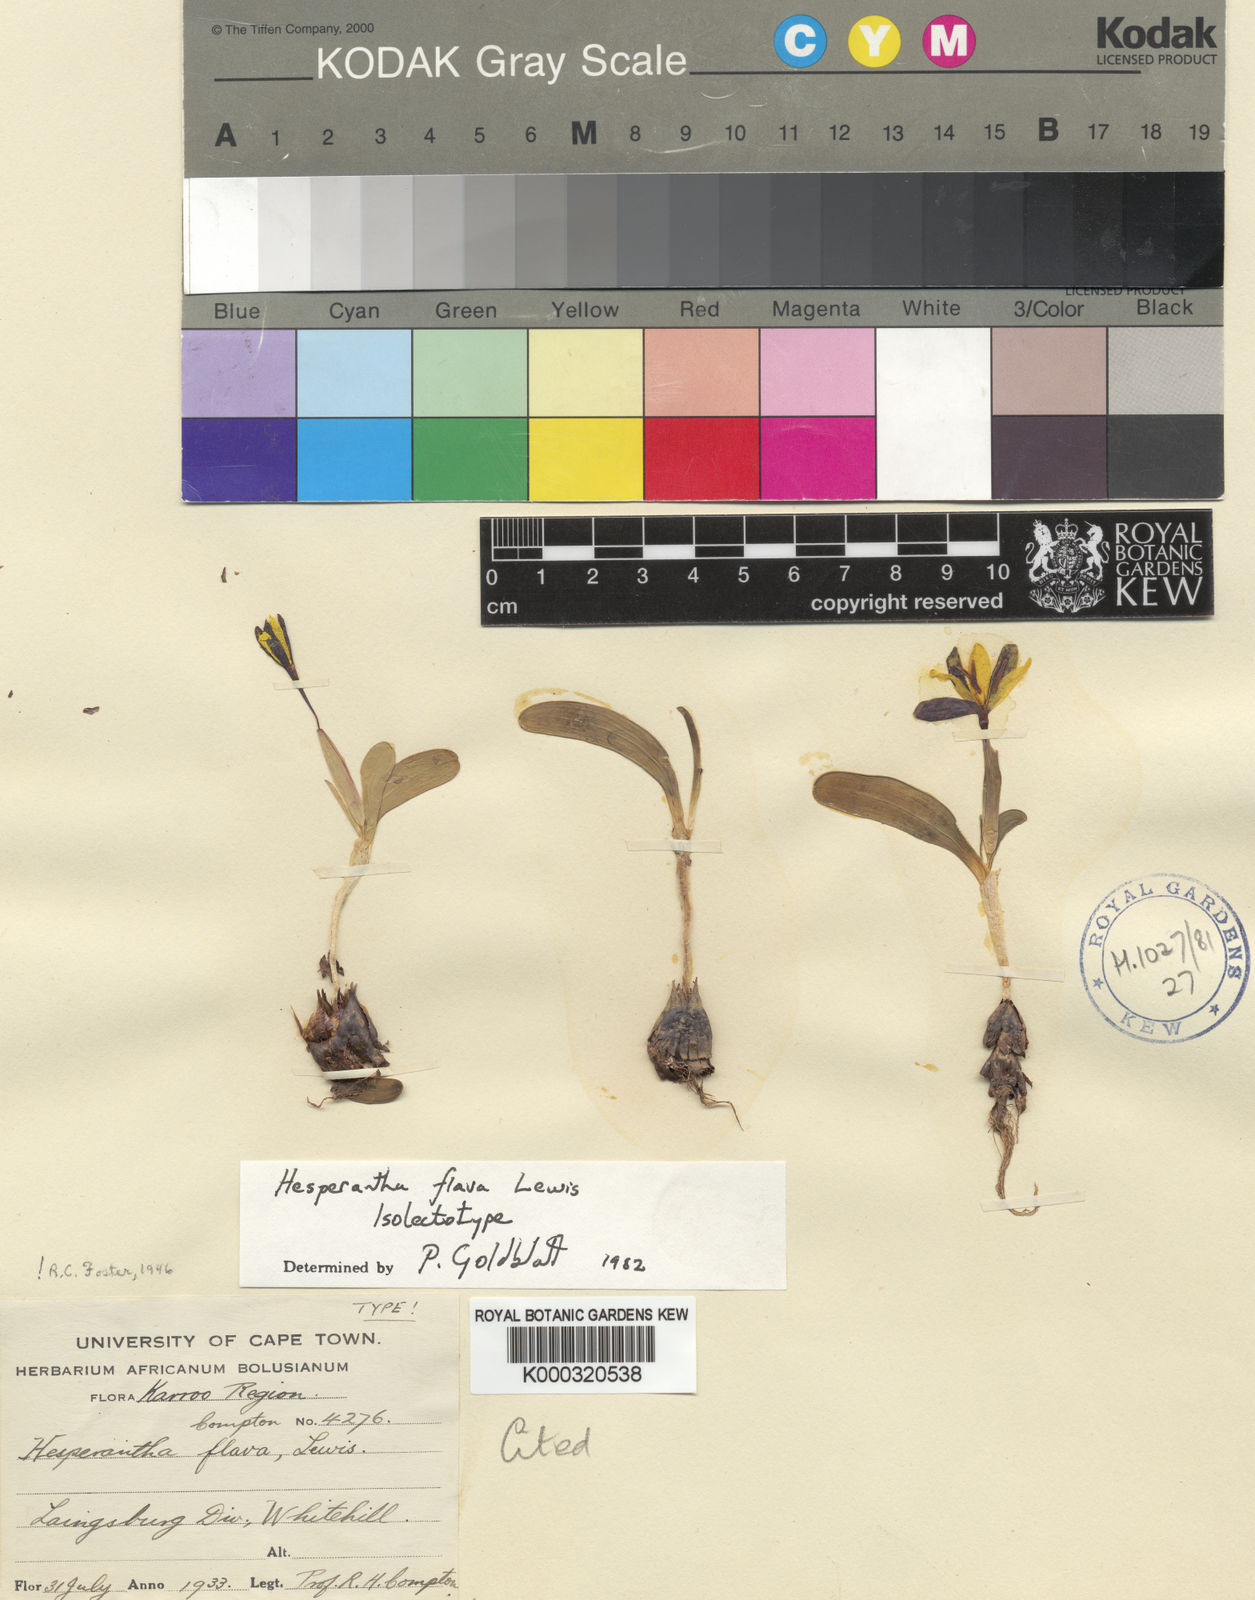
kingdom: Plantae
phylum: Tracheophyta
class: Liliopsida
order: Asparagales
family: Iridaceae
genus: Hesperantha
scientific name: Hesperantha flava
